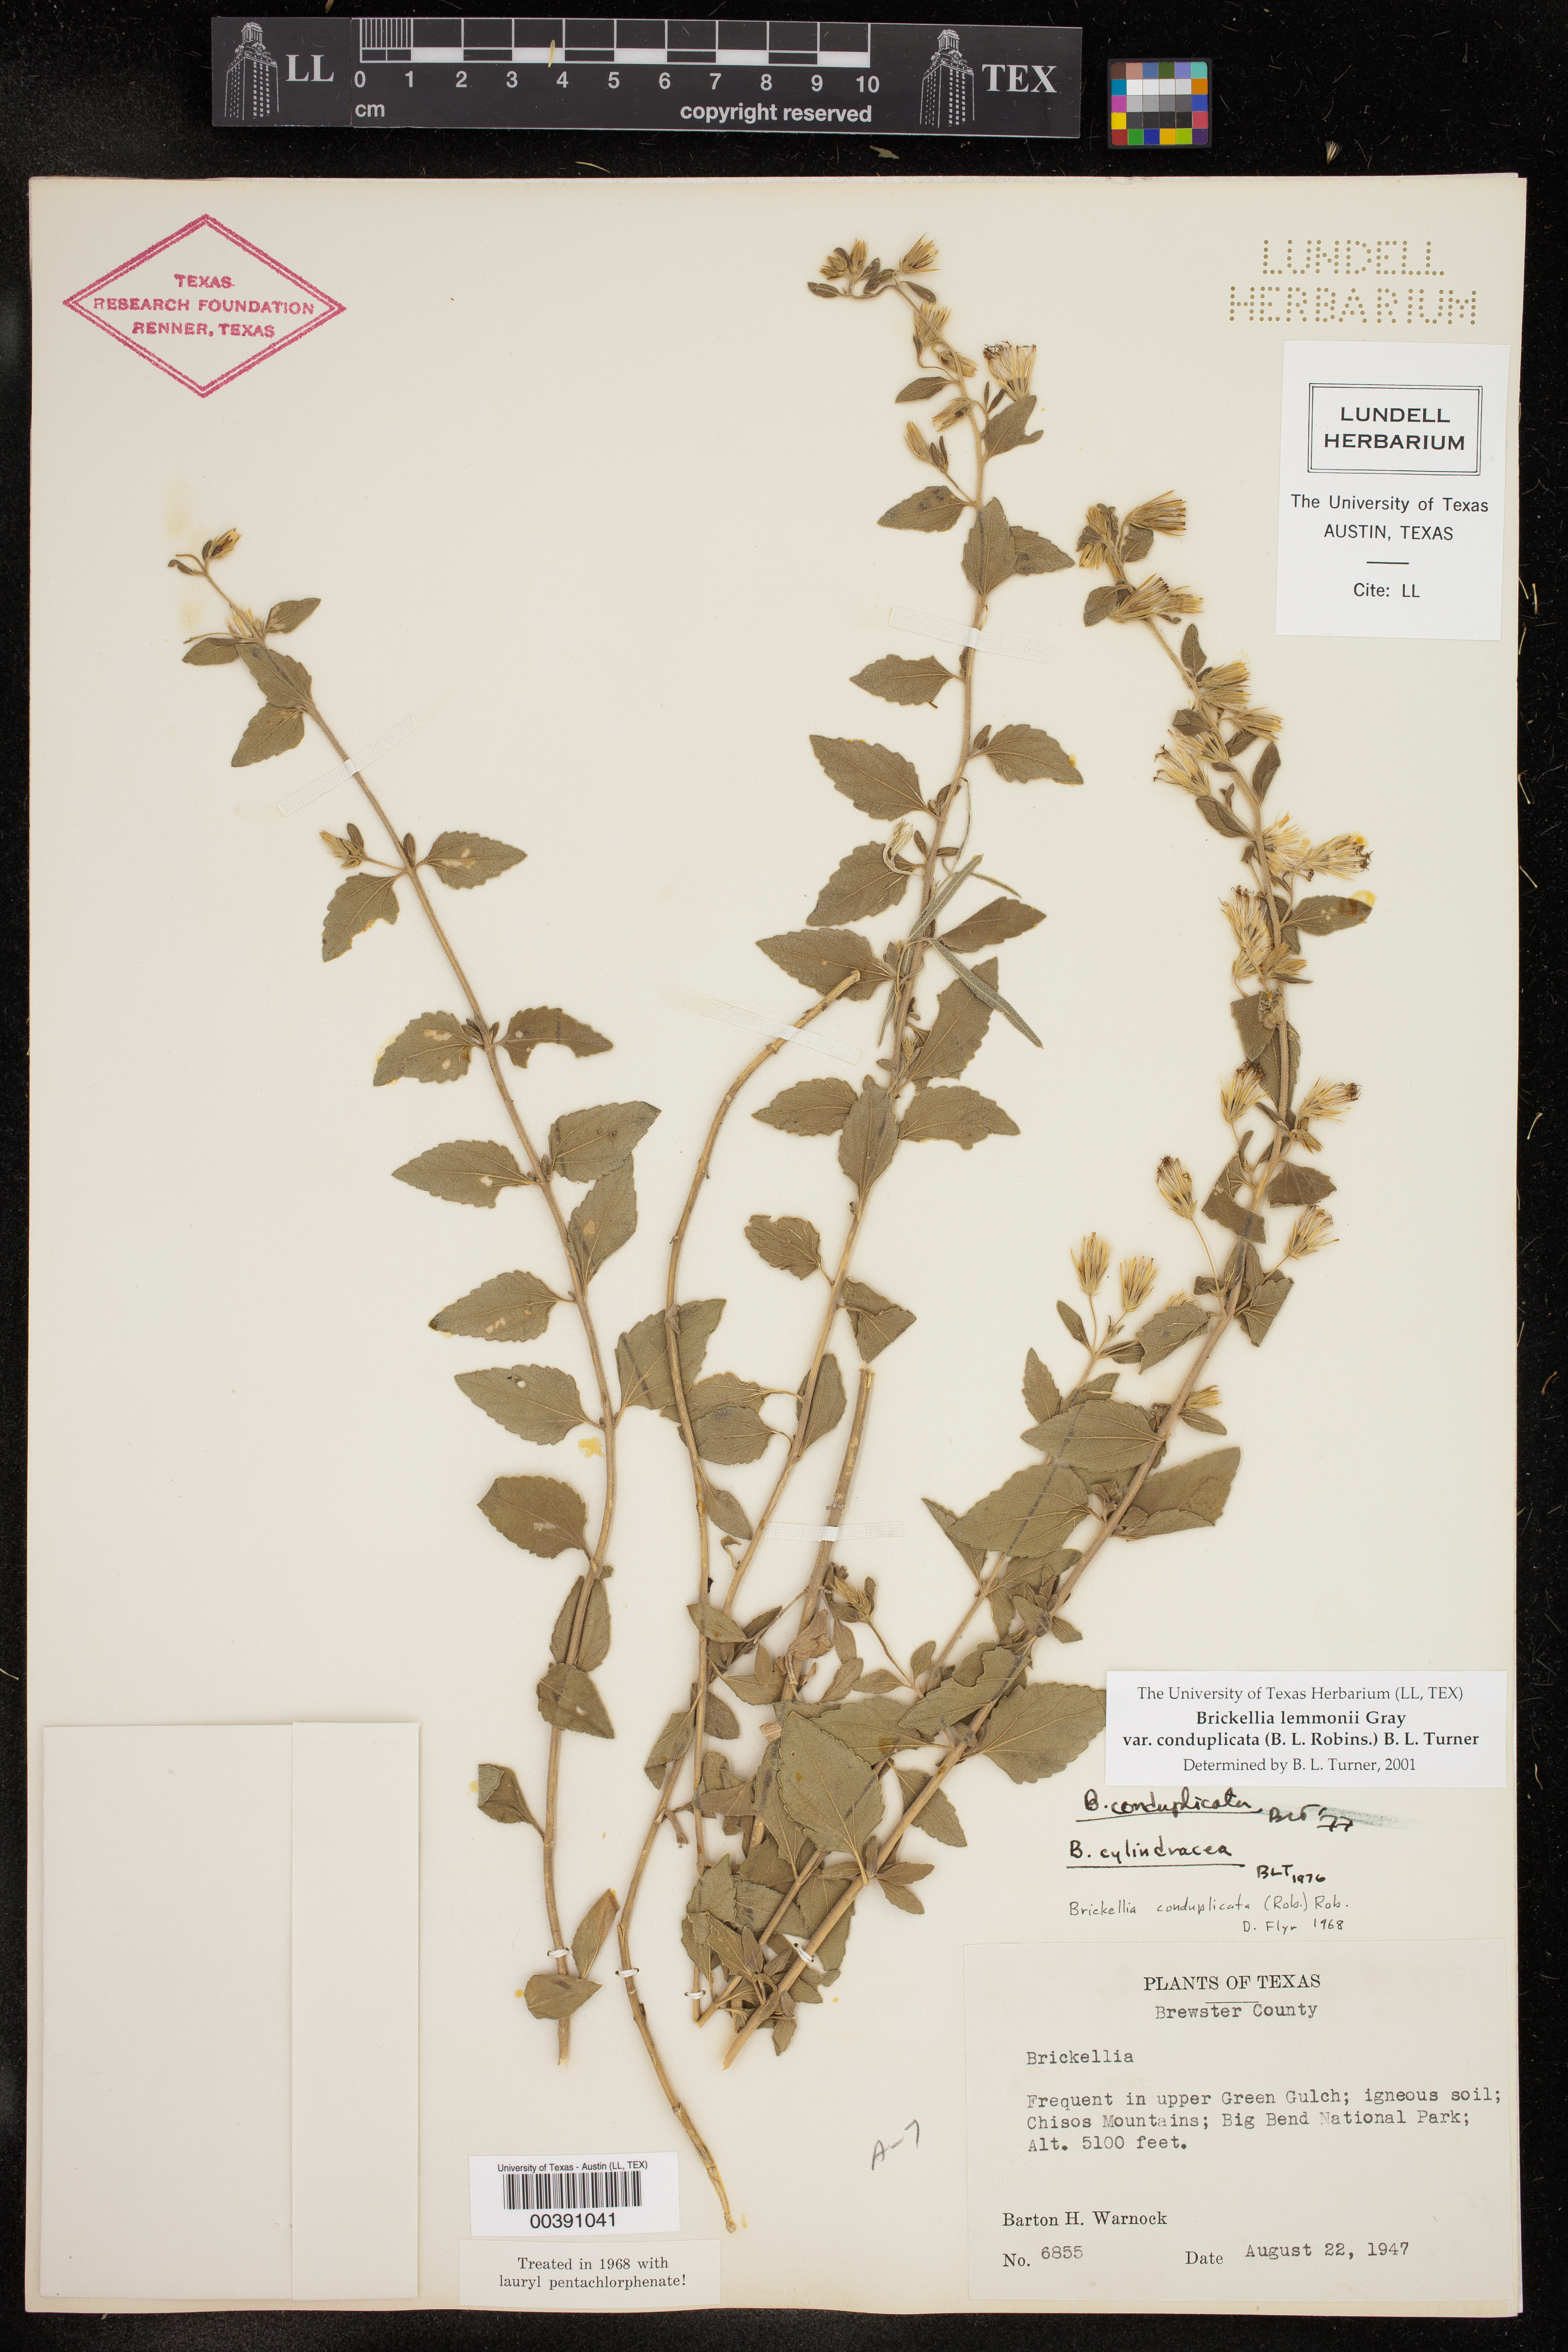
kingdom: Plantae
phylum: Tracheophyta
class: Magnoliopsida
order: Asterales
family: Asteraceae
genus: Brickellia
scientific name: Brickellia lemmonii
